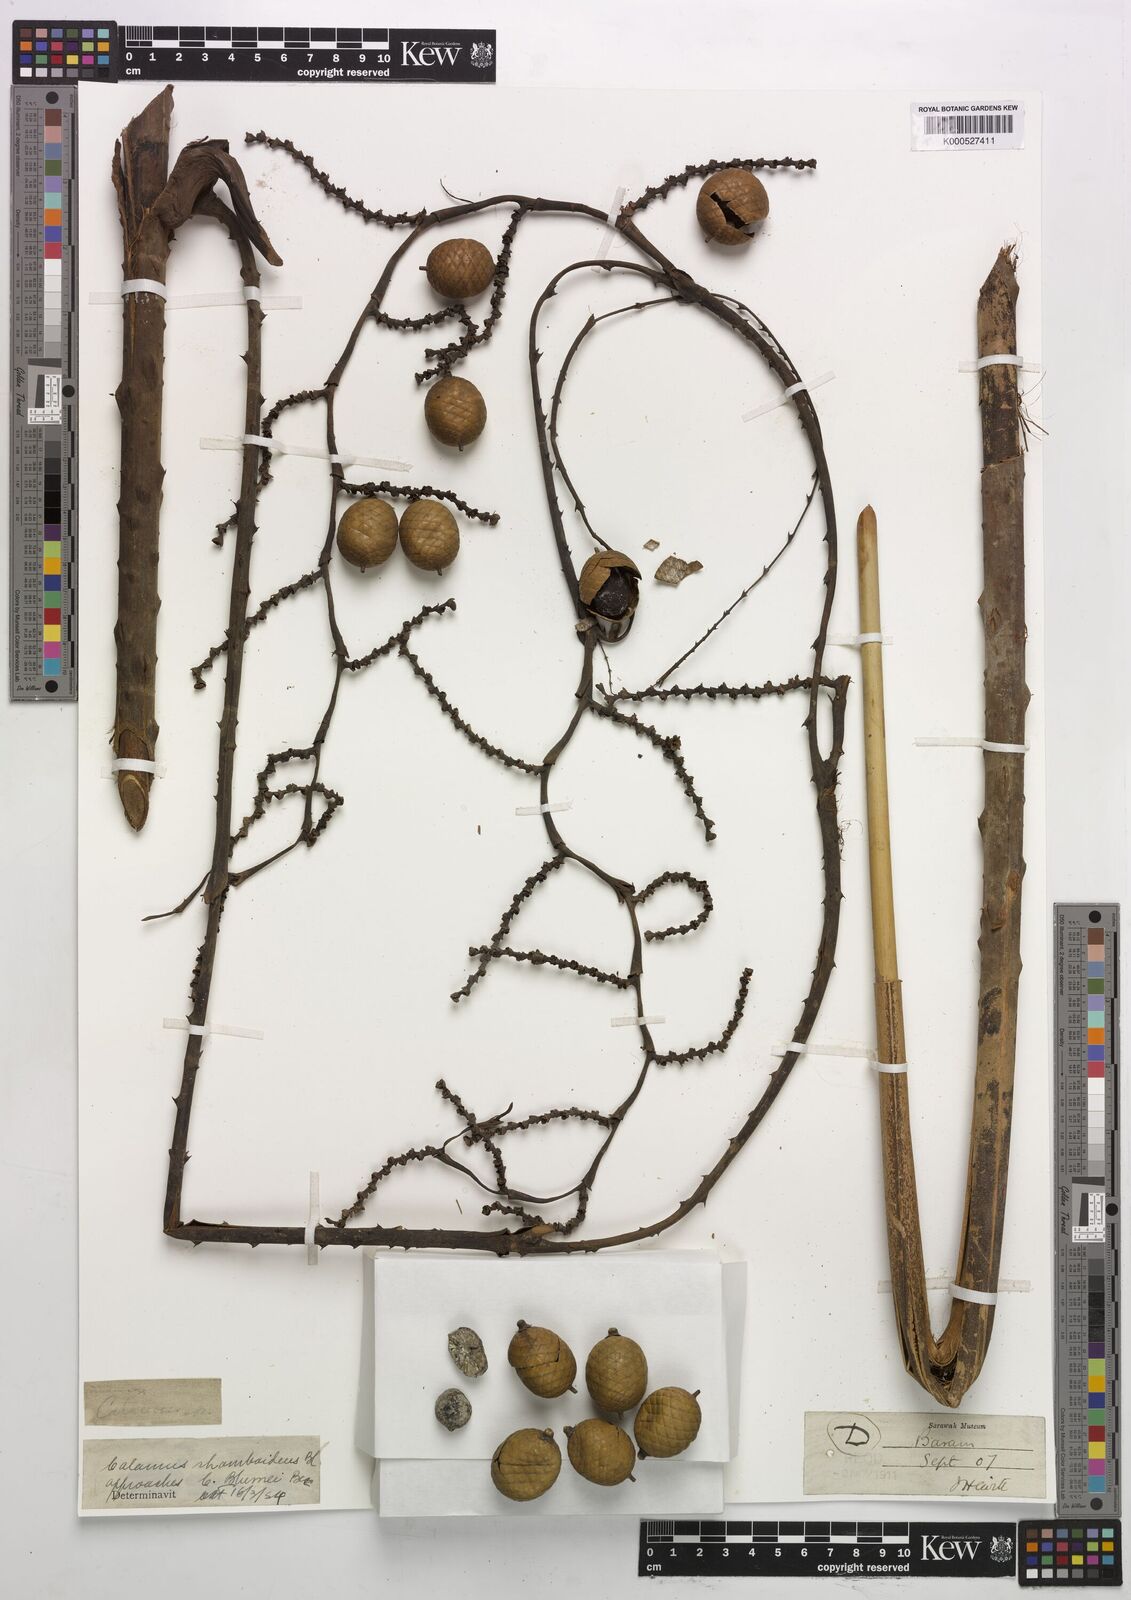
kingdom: Plantae
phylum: Tracheophyta
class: Liliopsida
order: Arecales
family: Arecaceae
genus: Calamus
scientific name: Calamus rhomboideus
